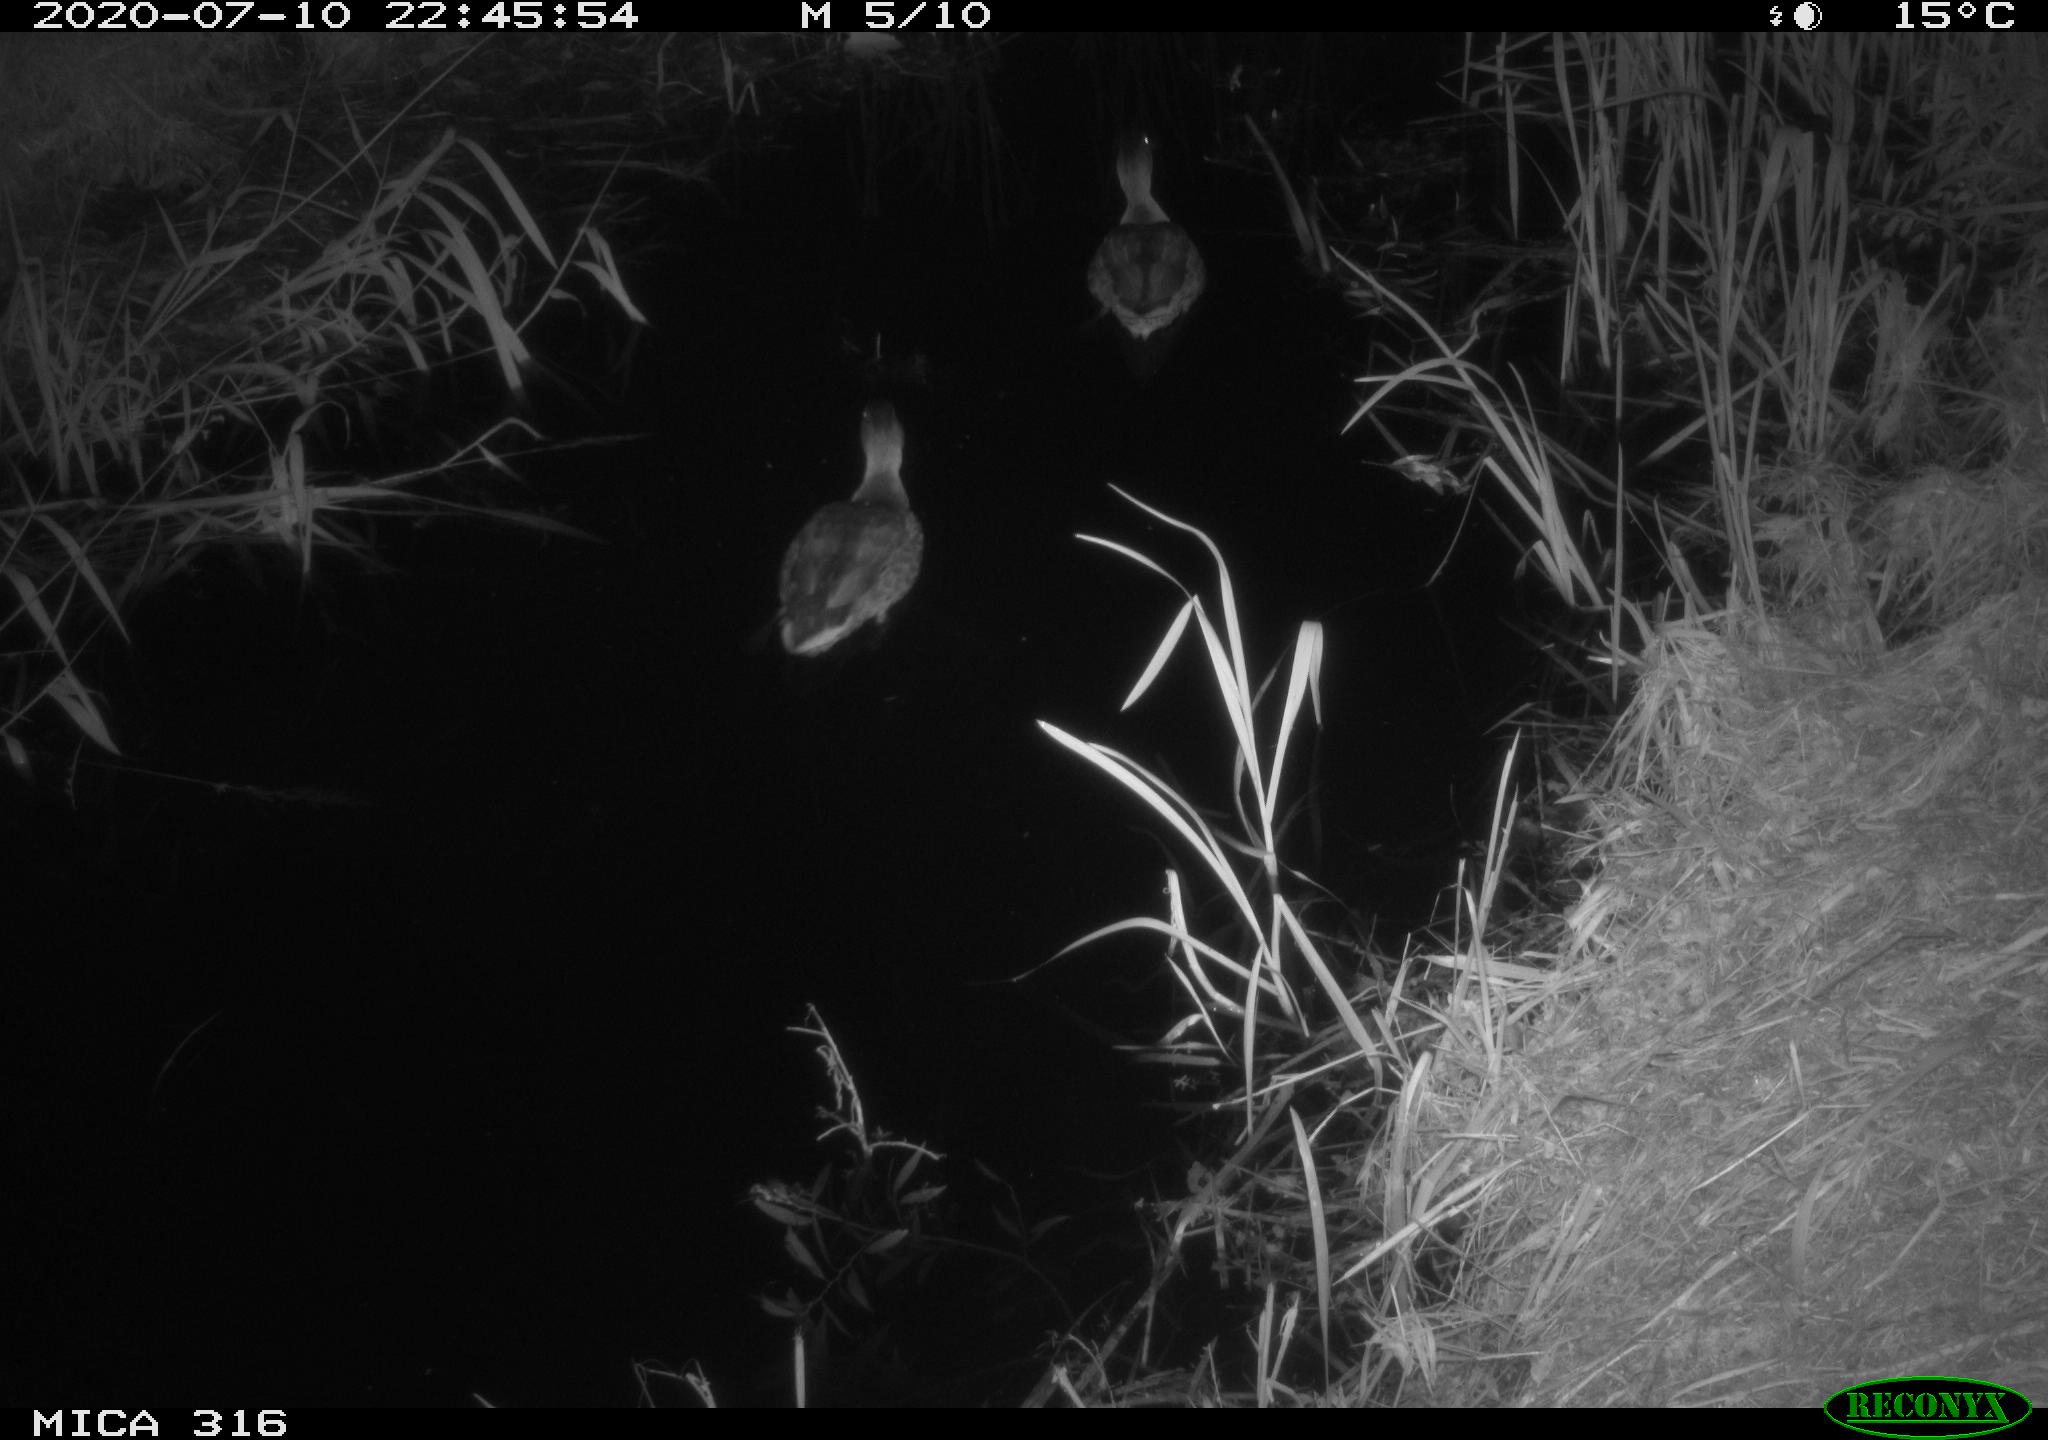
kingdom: Animalia
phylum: Chordata
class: Aves
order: Anseriformes
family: Anatidae
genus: Anas
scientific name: Anas platyrhynchos
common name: Mallard
